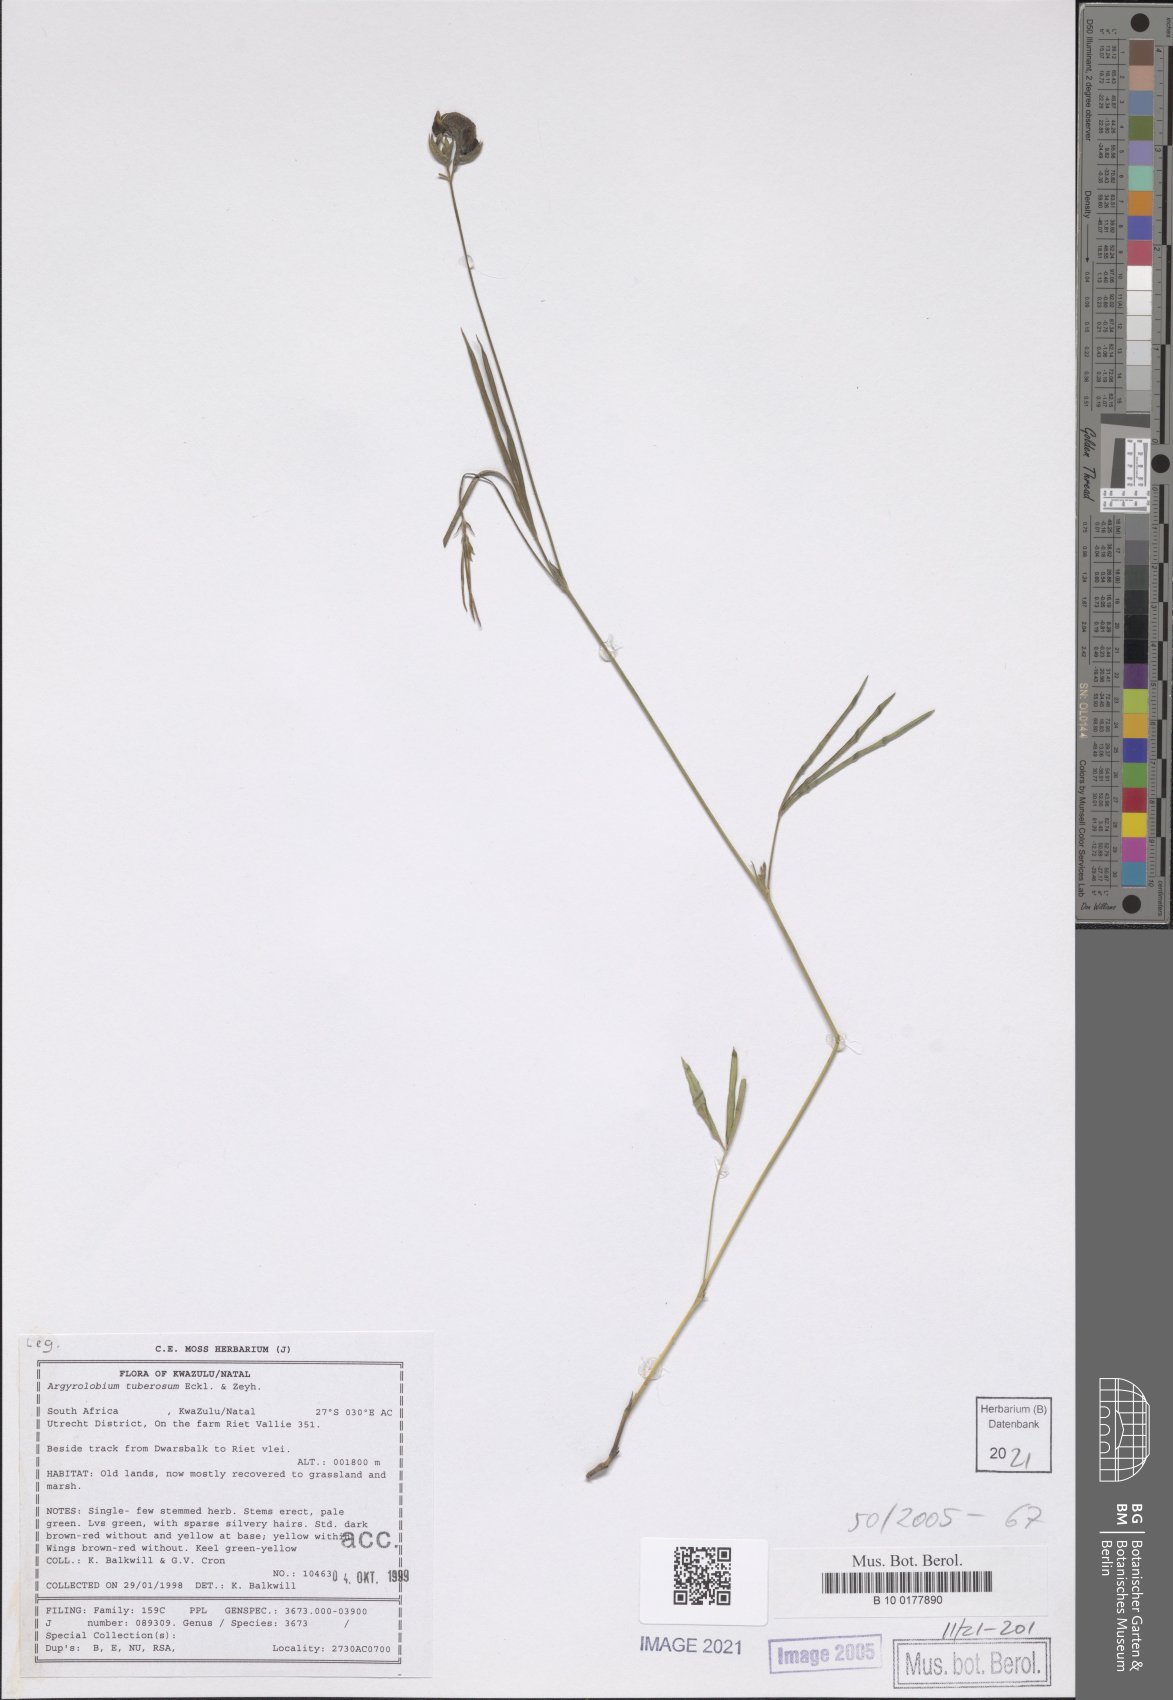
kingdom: Plantae
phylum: Tracheophyta
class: Magnoliopsida
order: Fabales
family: Fabaceae
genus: Argyrolobium
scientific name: Argyrolobium tuberosum
